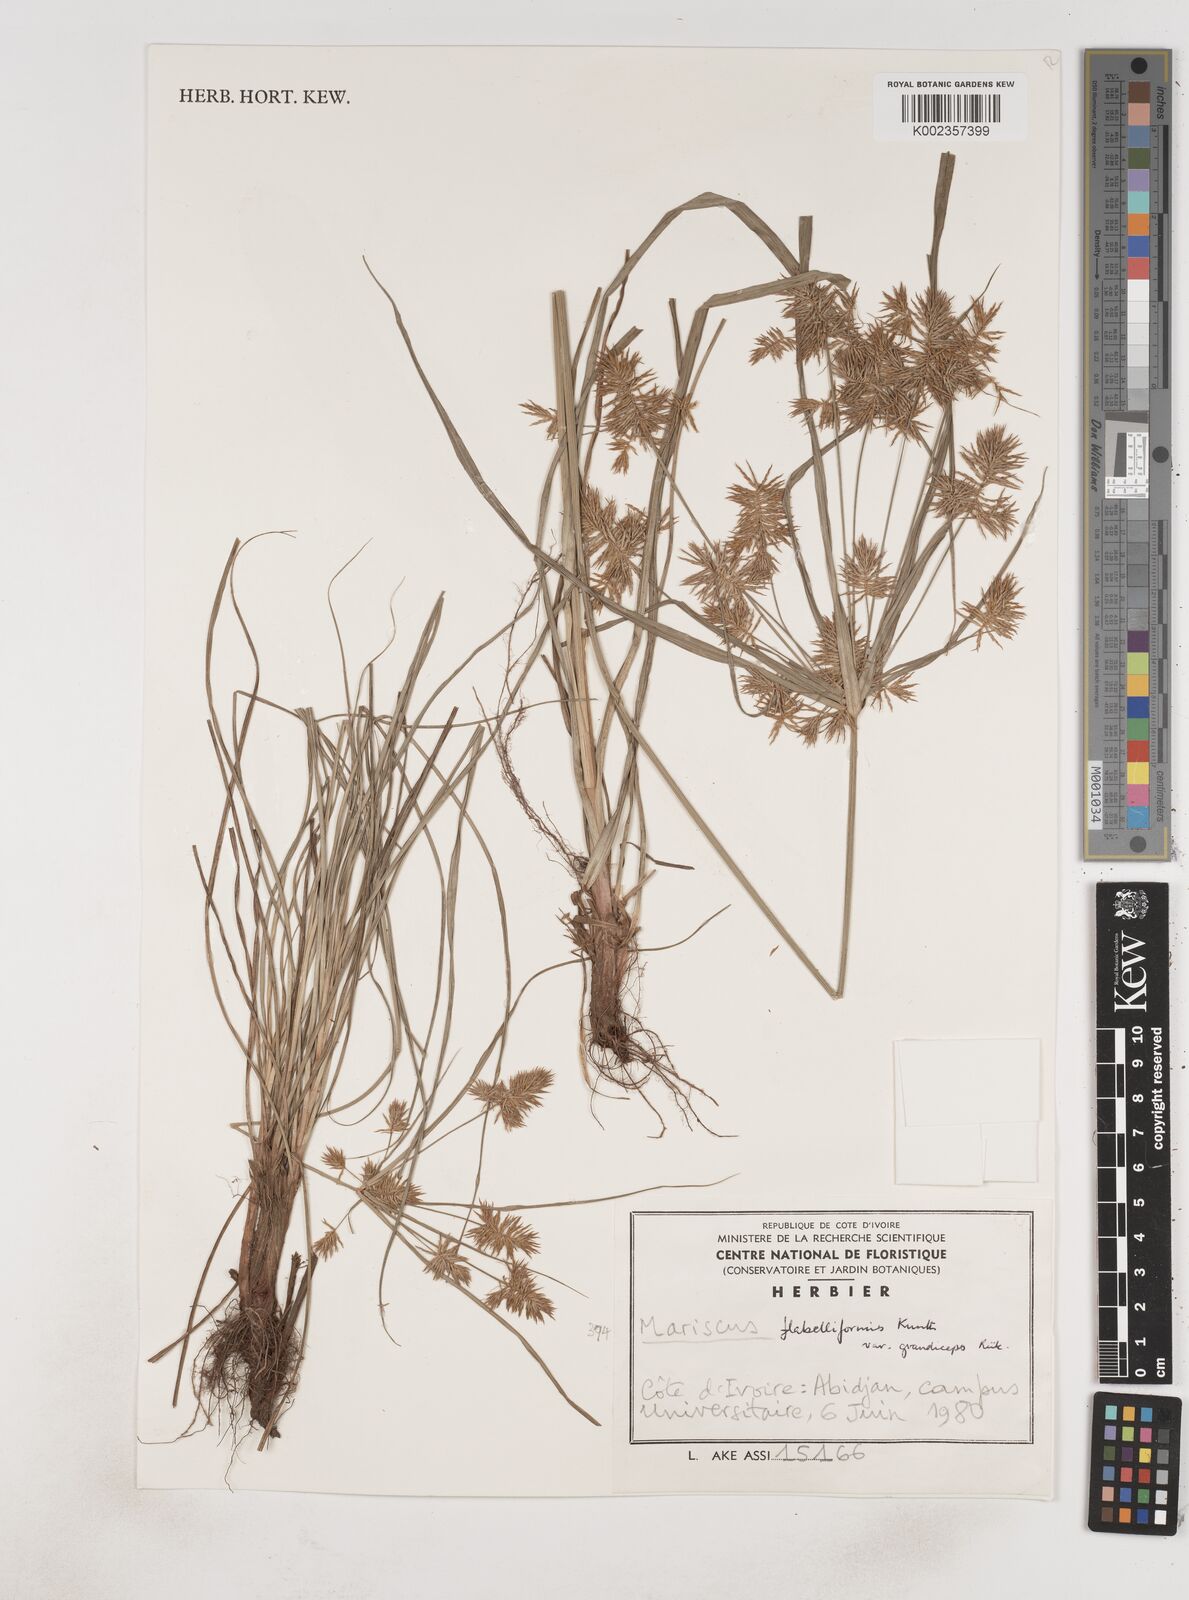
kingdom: Plantae
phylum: Tracheophyta
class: Liliopsida
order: Poales
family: Cyperaceae
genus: Cyperus
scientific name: Cyperus tenuis
